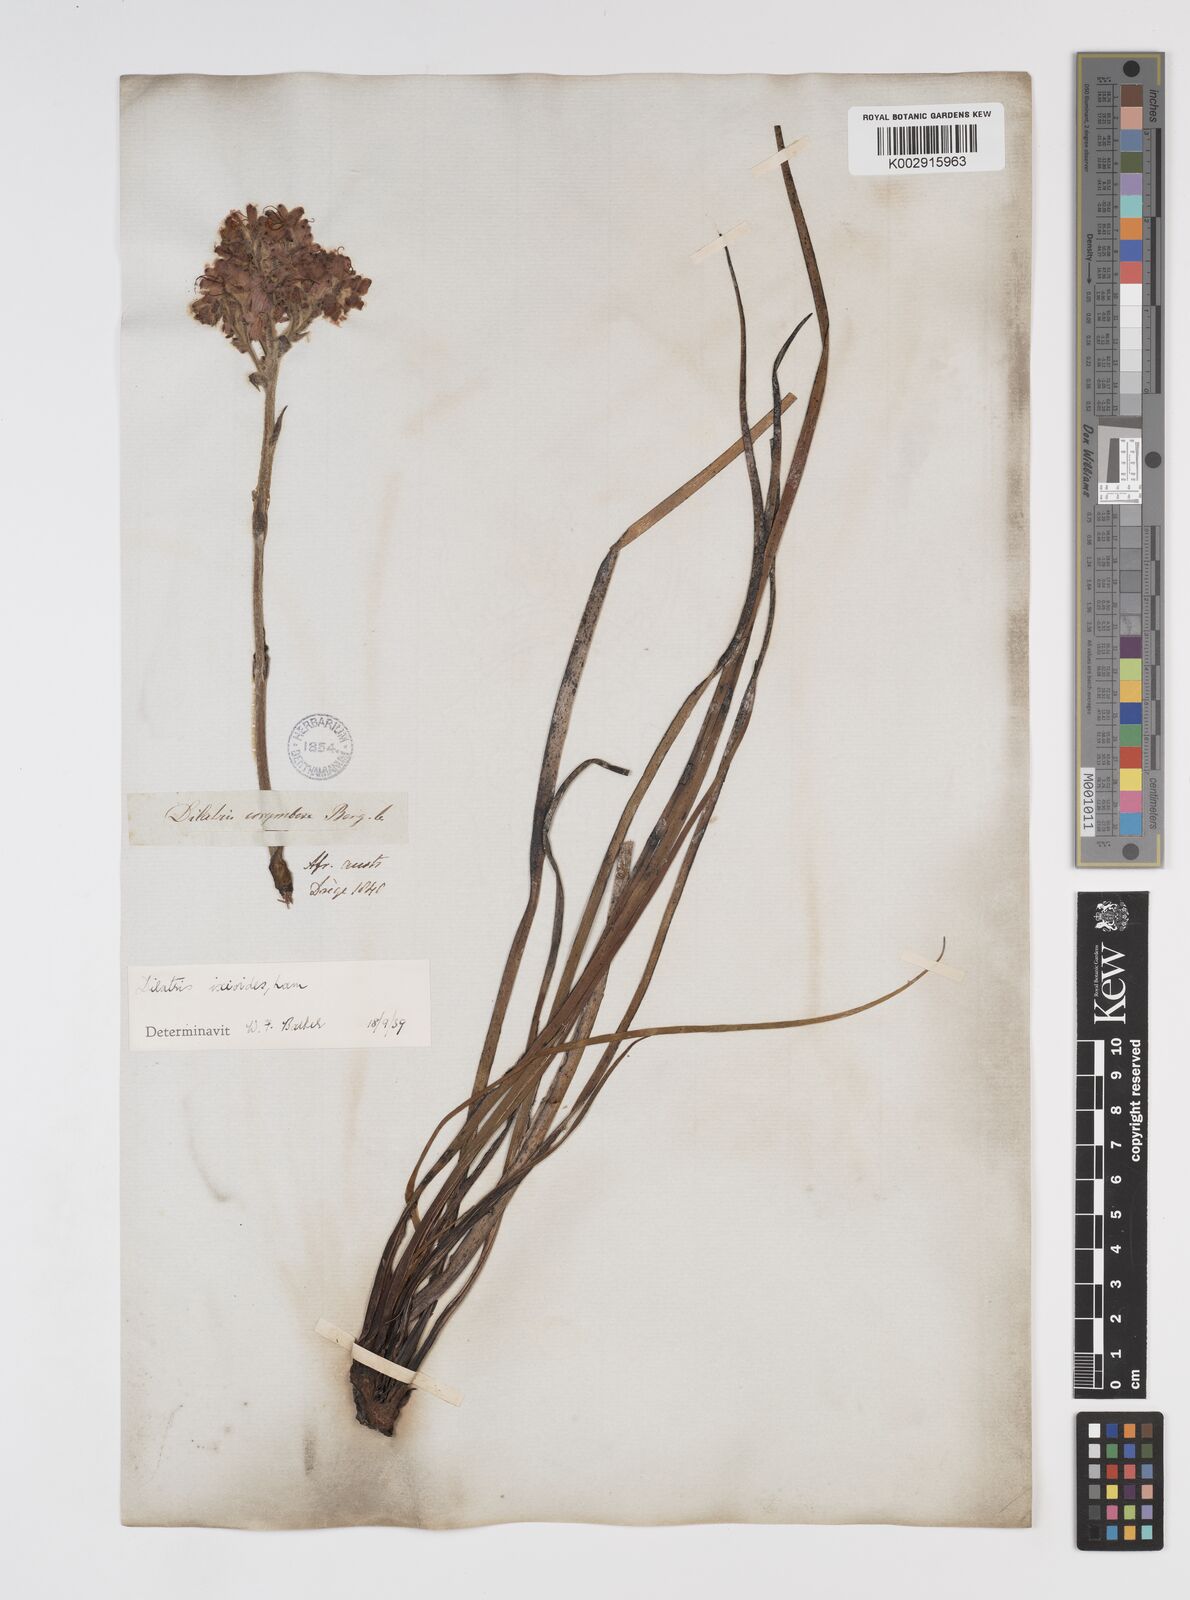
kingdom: Plantae
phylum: Tracheophyta
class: Liliopsida
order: Commelinales
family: Haemodoraceae
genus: Dilatris
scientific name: Dilatris ixioides
